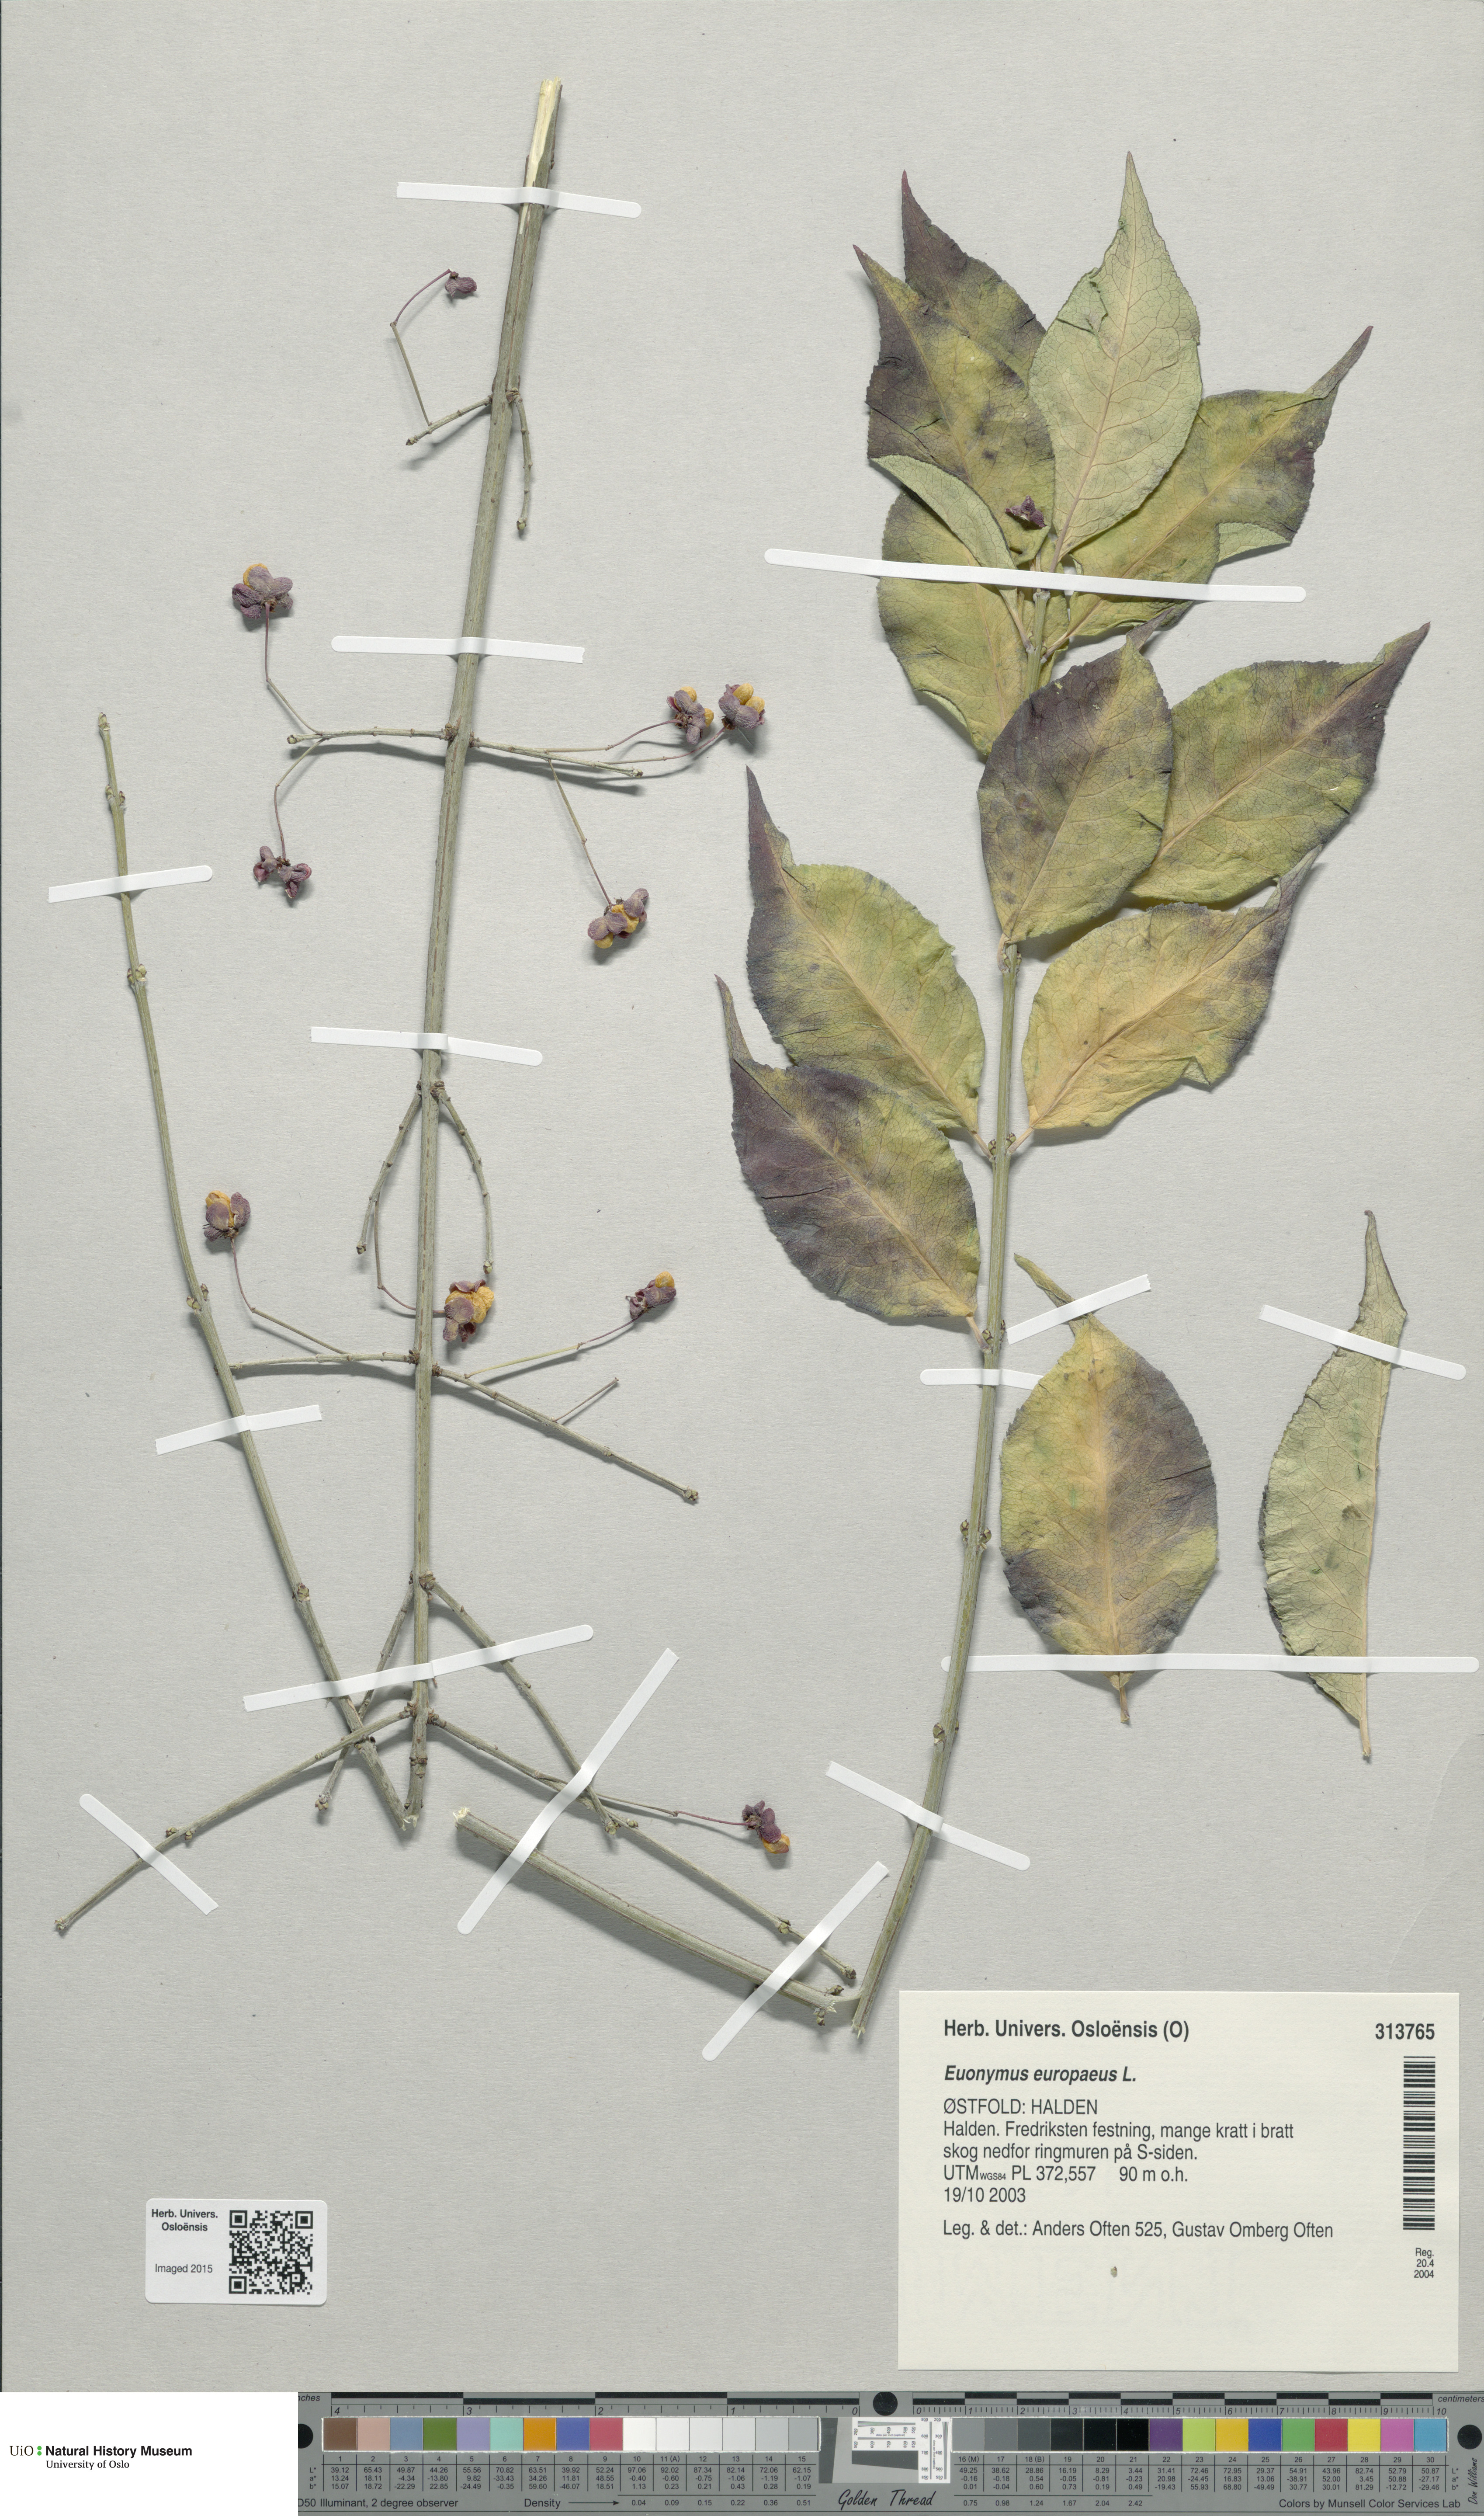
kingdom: Plantae
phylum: Tracheophyta
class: Magnoliopsida
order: Celastrales
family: Celastraceae
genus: Euonymus
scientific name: Euonymus europaeus
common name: Spindle
